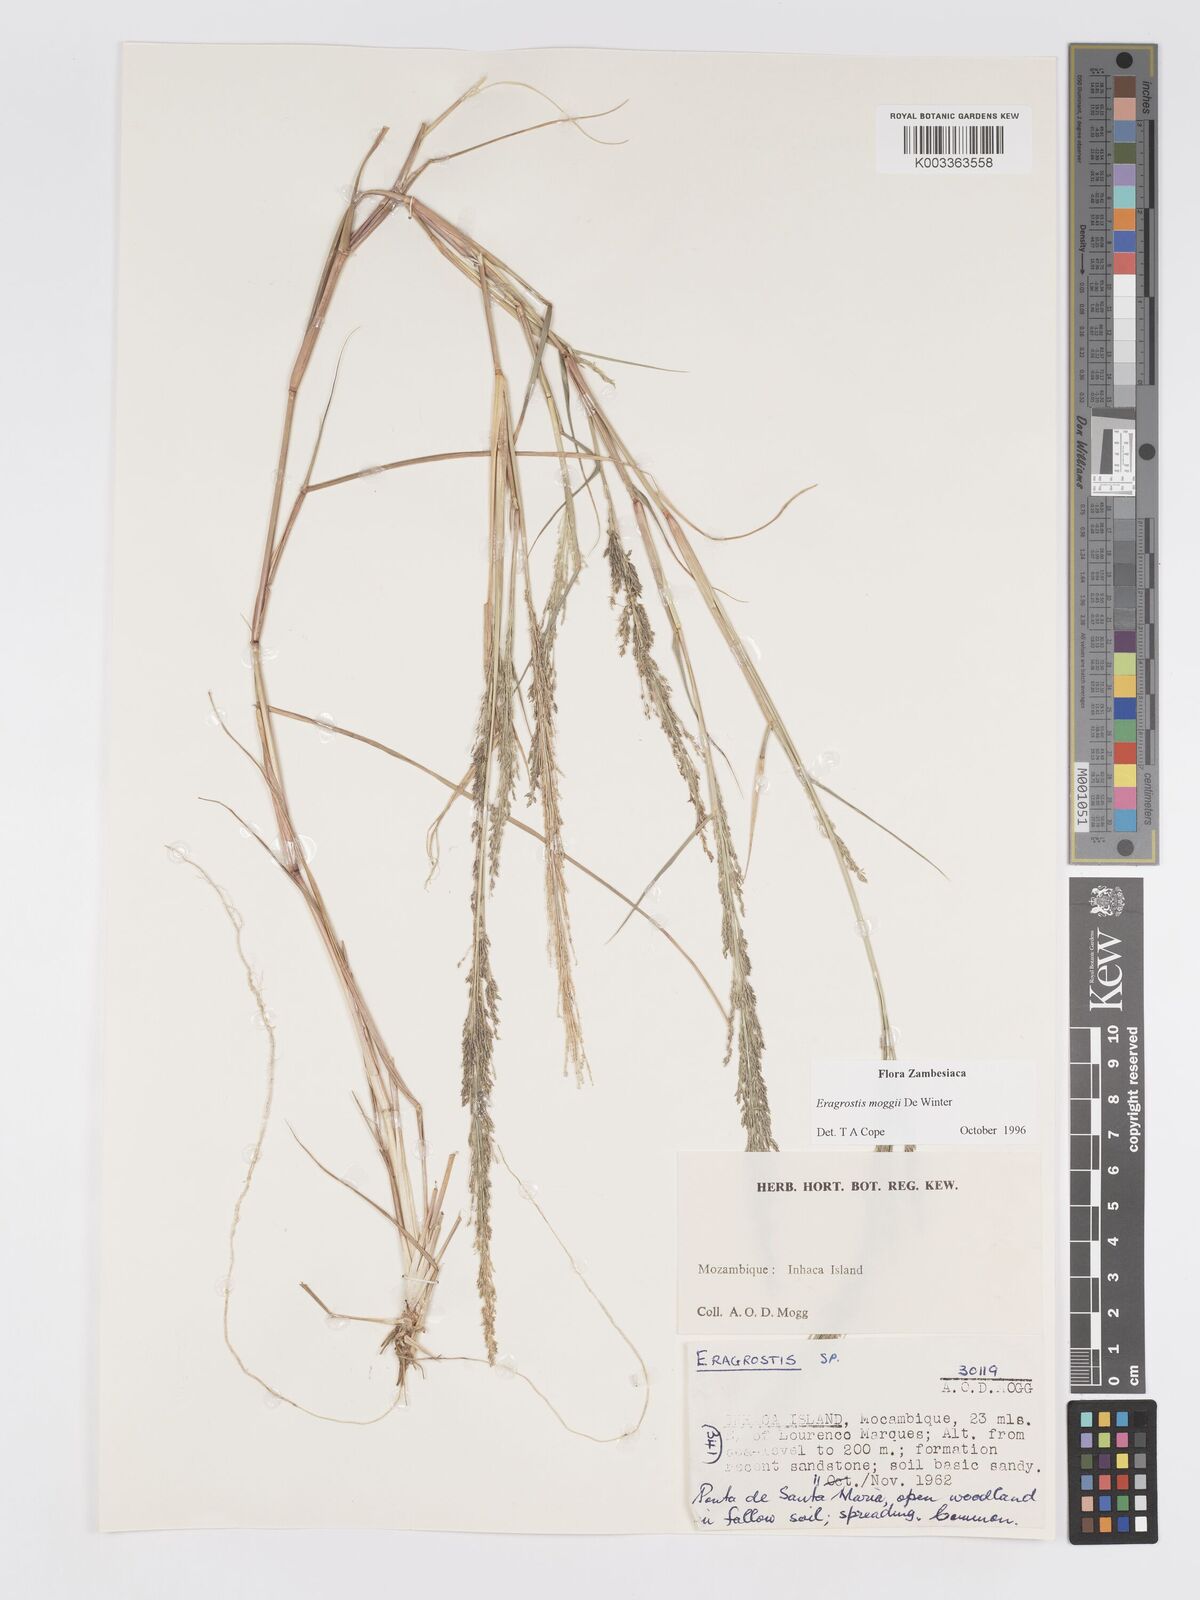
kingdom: Plantae
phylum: Tracheophyta
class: Liliopsida
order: Poales
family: Poaceae
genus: Eragrostis
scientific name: Eragrostis moggii
